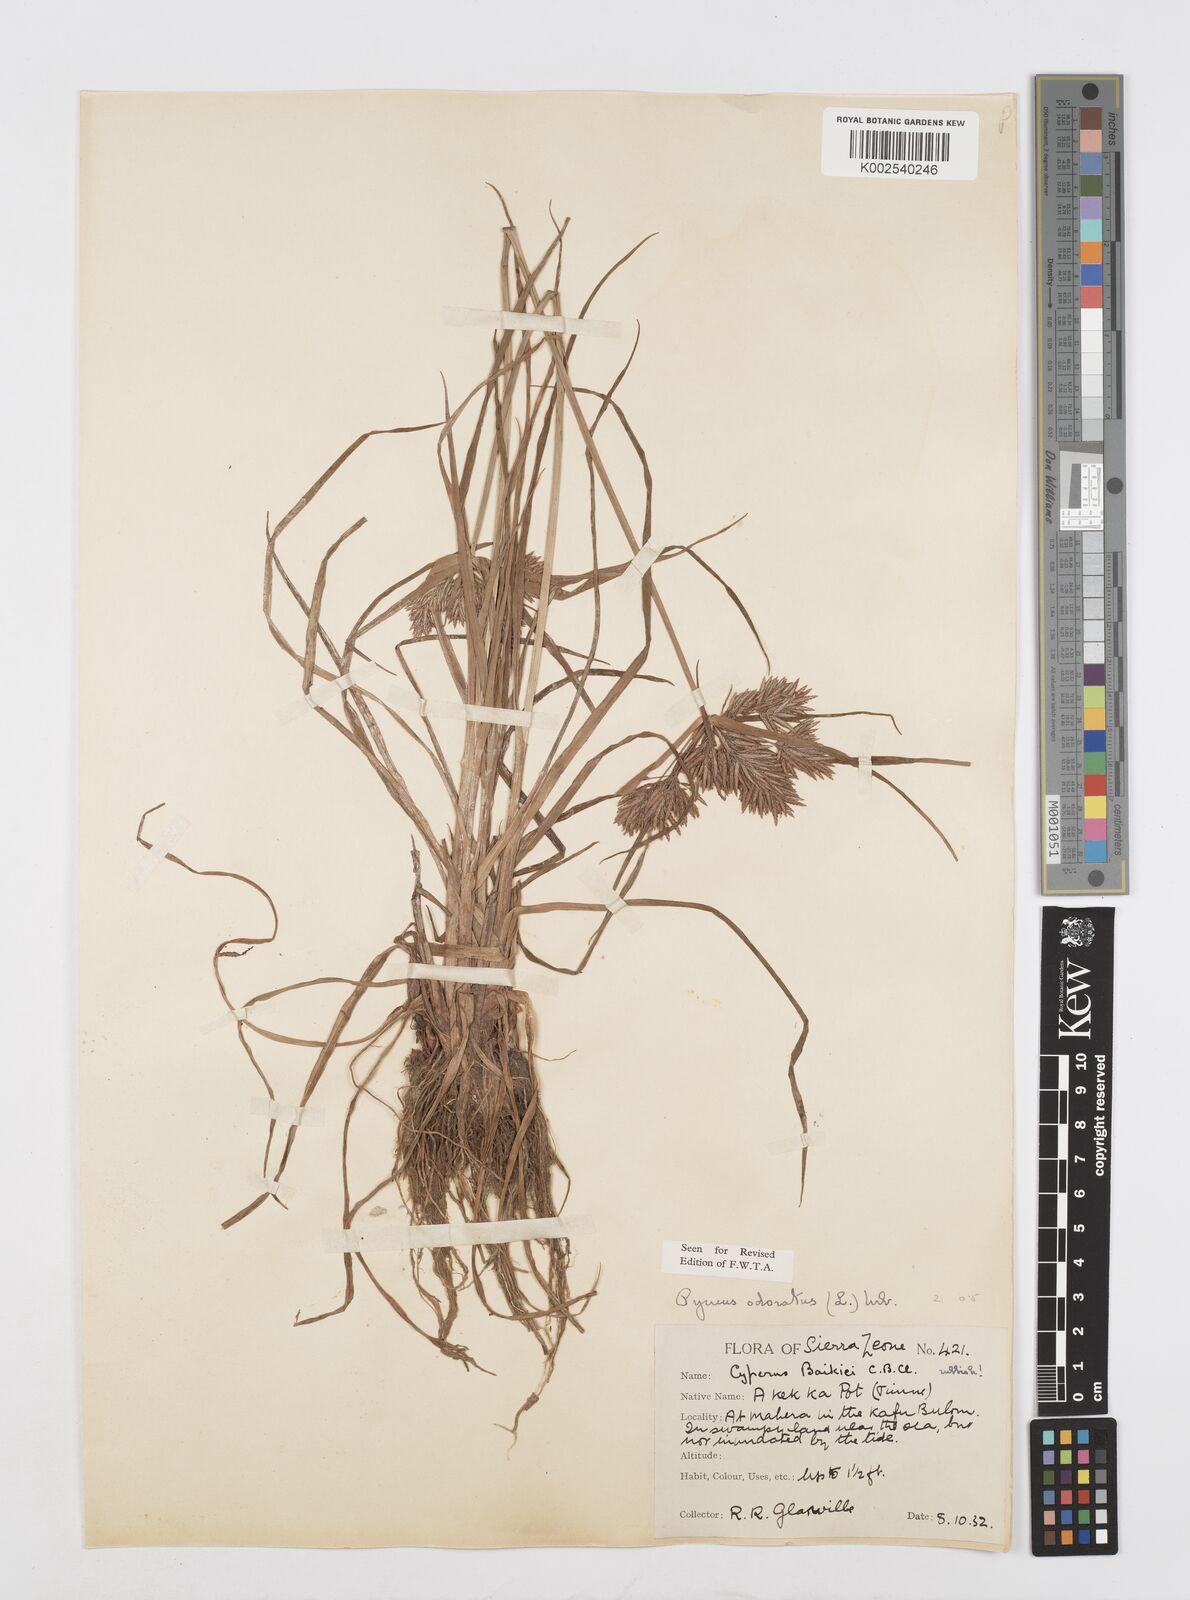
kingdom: Plantae
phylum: Tracheophyta
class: Liliopsida
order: Poales
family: Cyperaceae
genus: Cyperus
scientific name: Cyperus polystachyos
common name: Bunchy flat sedge
